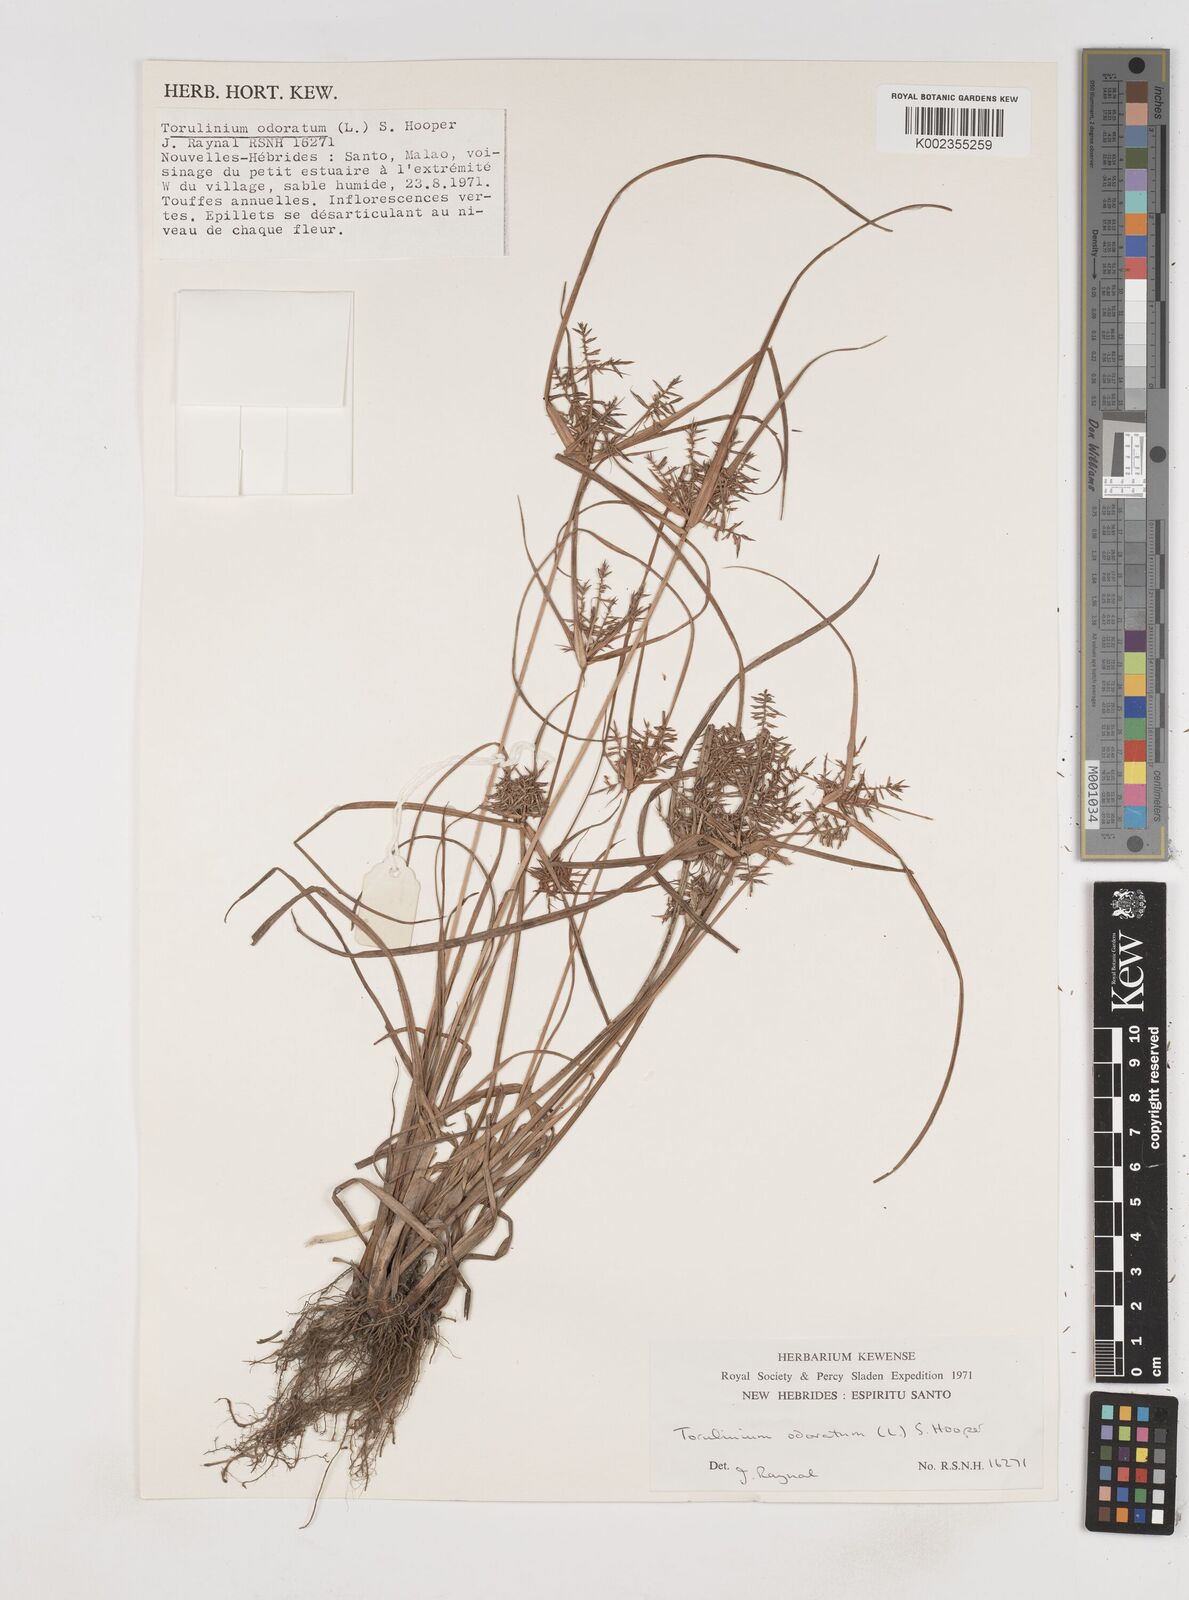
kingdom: Plantae
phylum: Tracheophyta
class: Liliopsida
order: Poales
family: Cyperaceae
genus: Cyperus
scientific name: Cyperus odoratus
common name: Fragrant flatsedge
